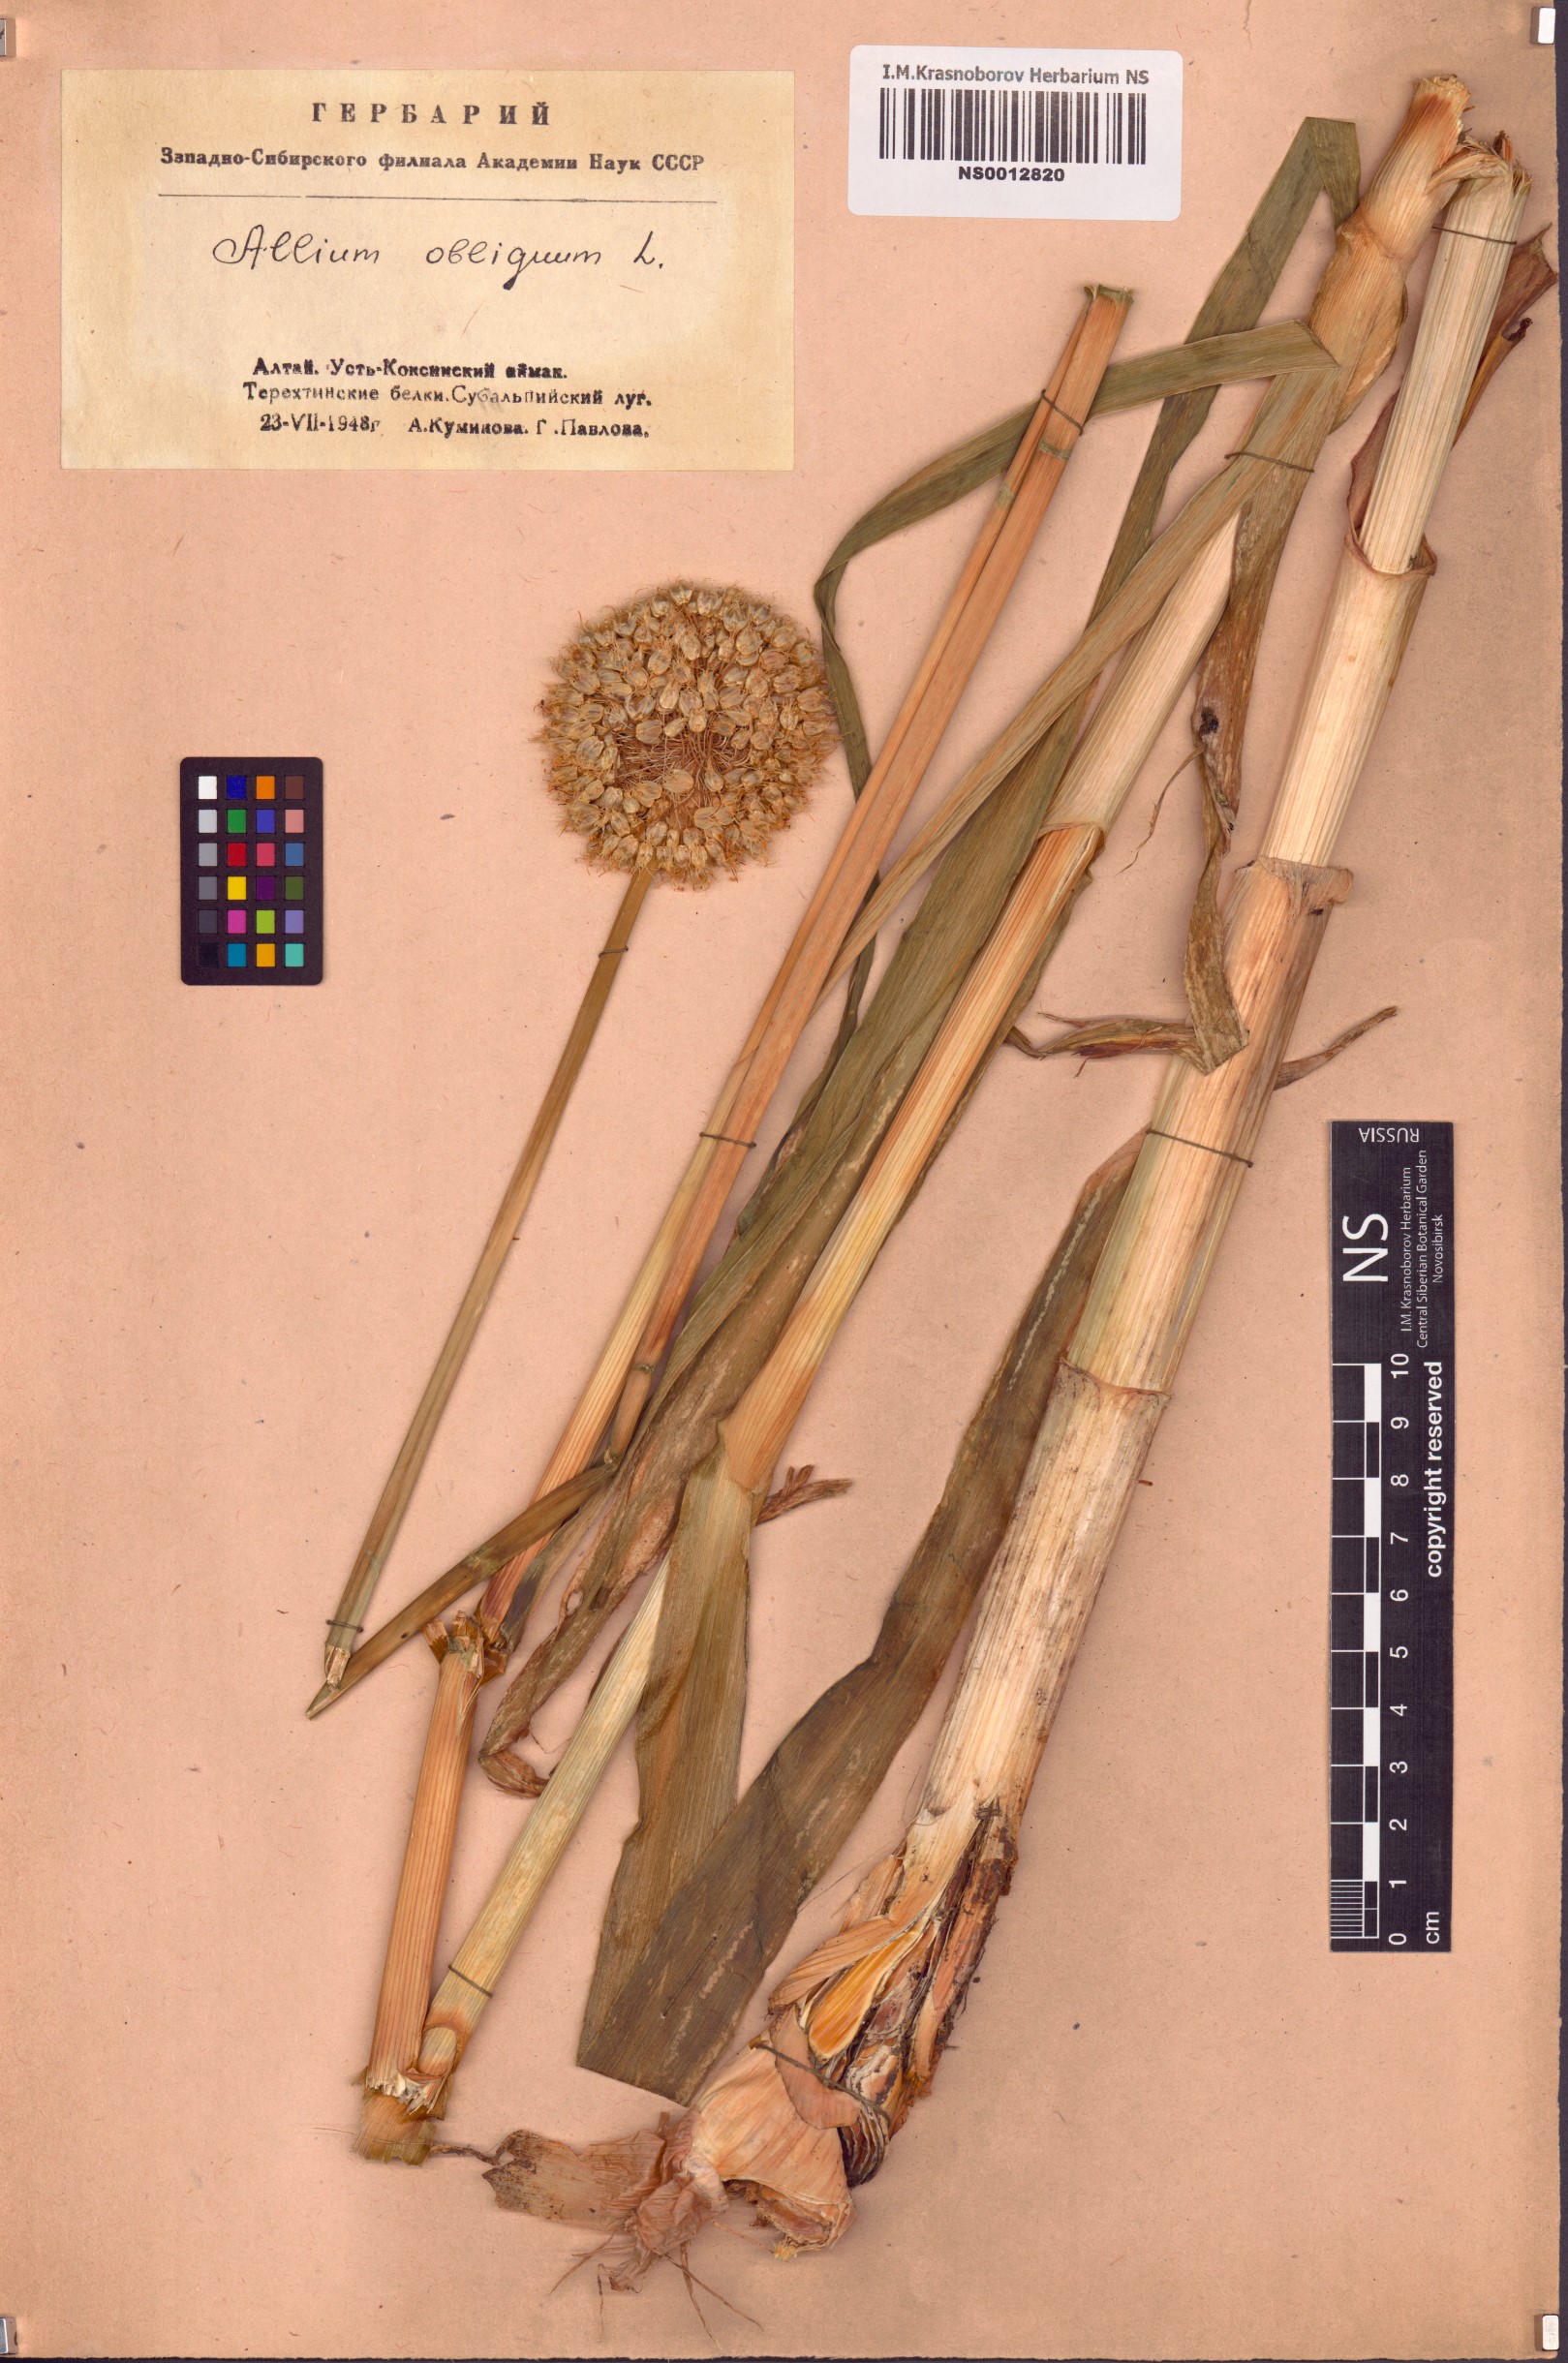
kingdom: Plantae
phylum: Tracheophyta
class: Liliopsida
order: Asparagales
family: Amaryllidaceae
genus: Allium
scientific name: Allium obliquum
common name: Oblique onion
